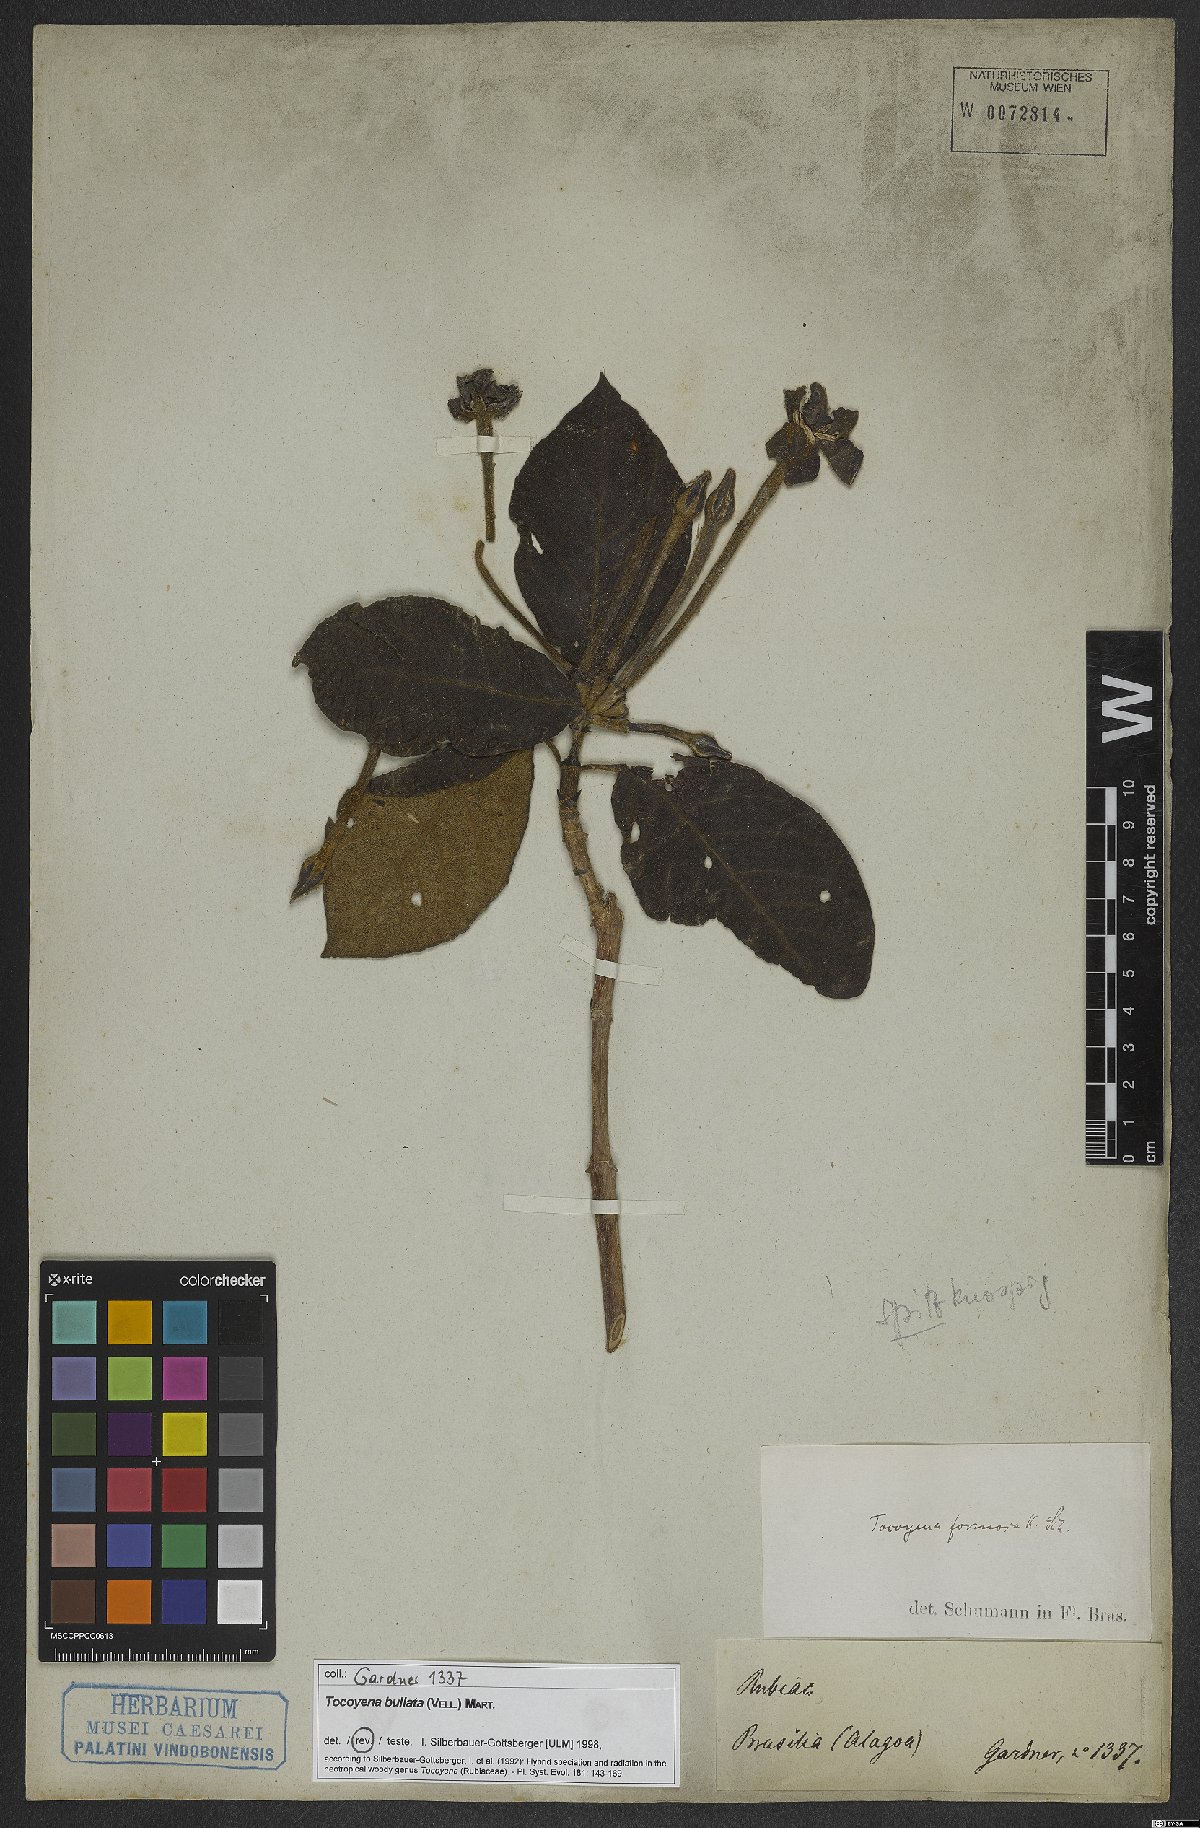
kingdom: Plantae
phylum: Tracheophyta
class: Magnoliopsida
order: Gentianales
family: Rubiaceae
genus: Tocoyena
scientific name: Tocoyena bullata
